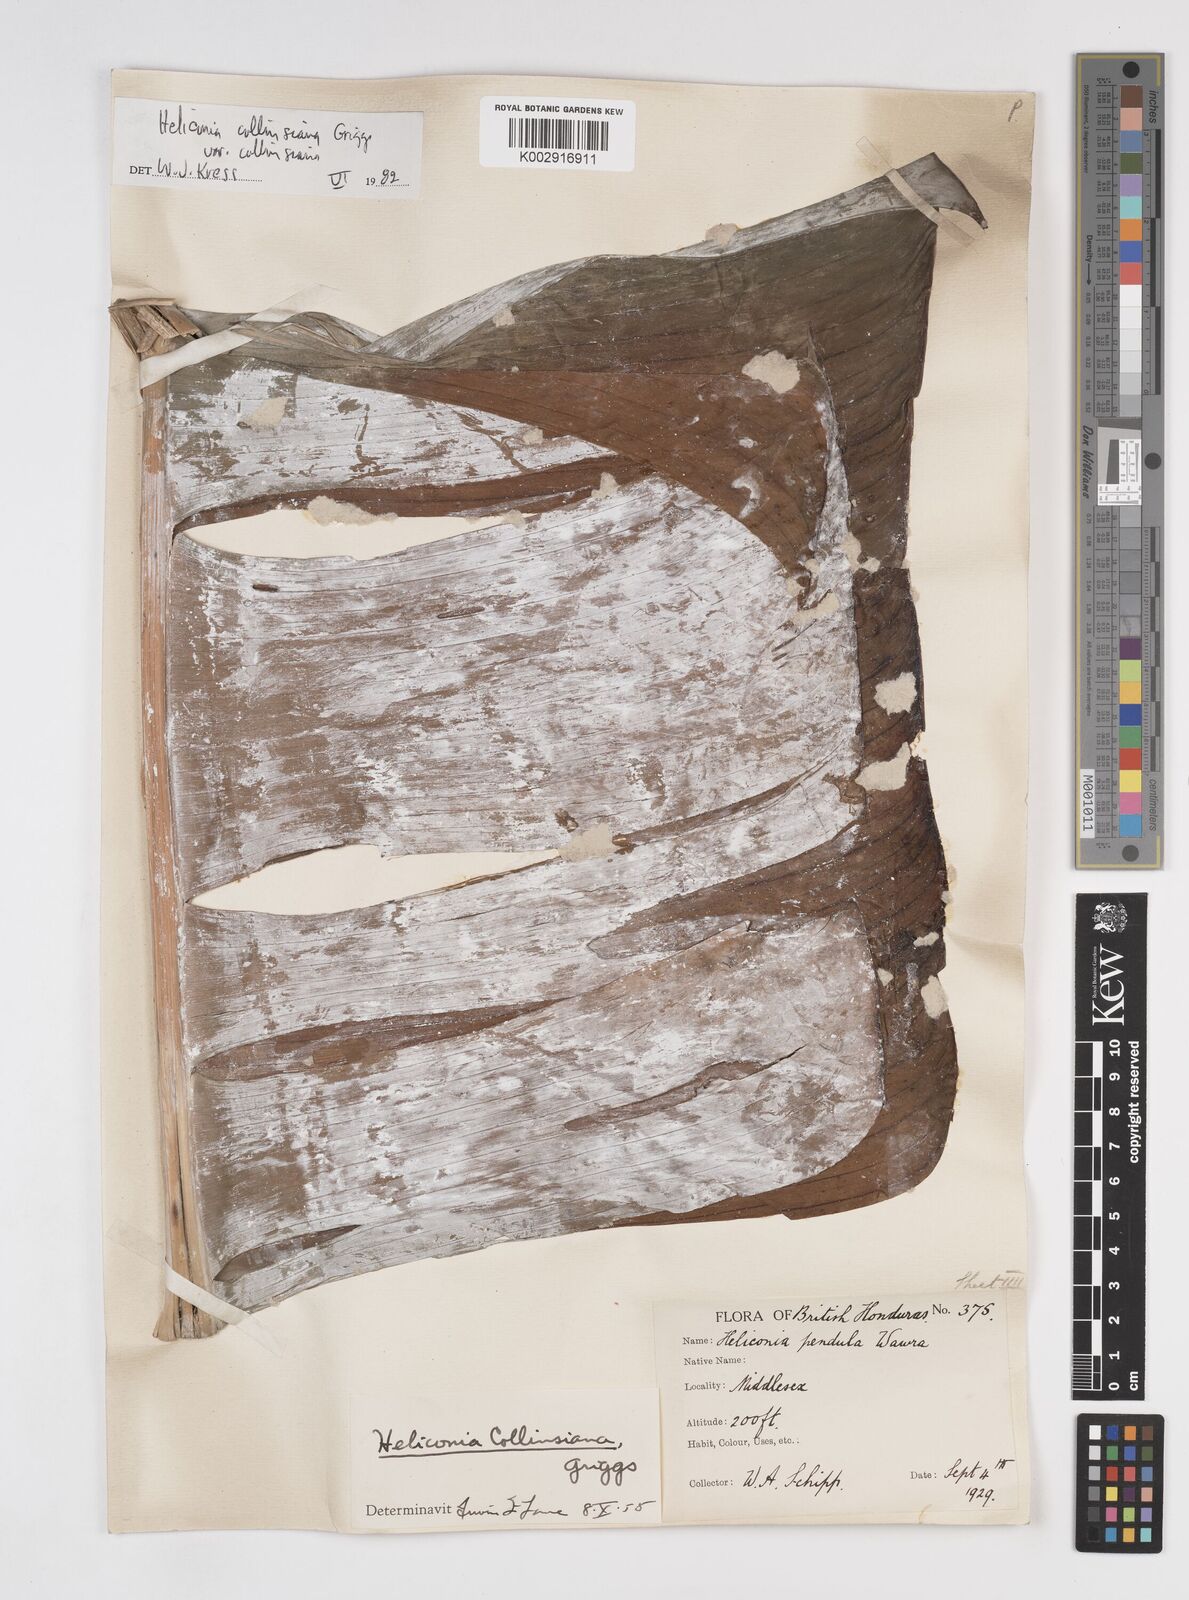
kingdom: Plantae
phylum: Tracheophyta
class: Liliopsida
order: Zingiberales
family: Heliconiaceae
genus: Heliconia
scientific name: Heliconia collinsiana
